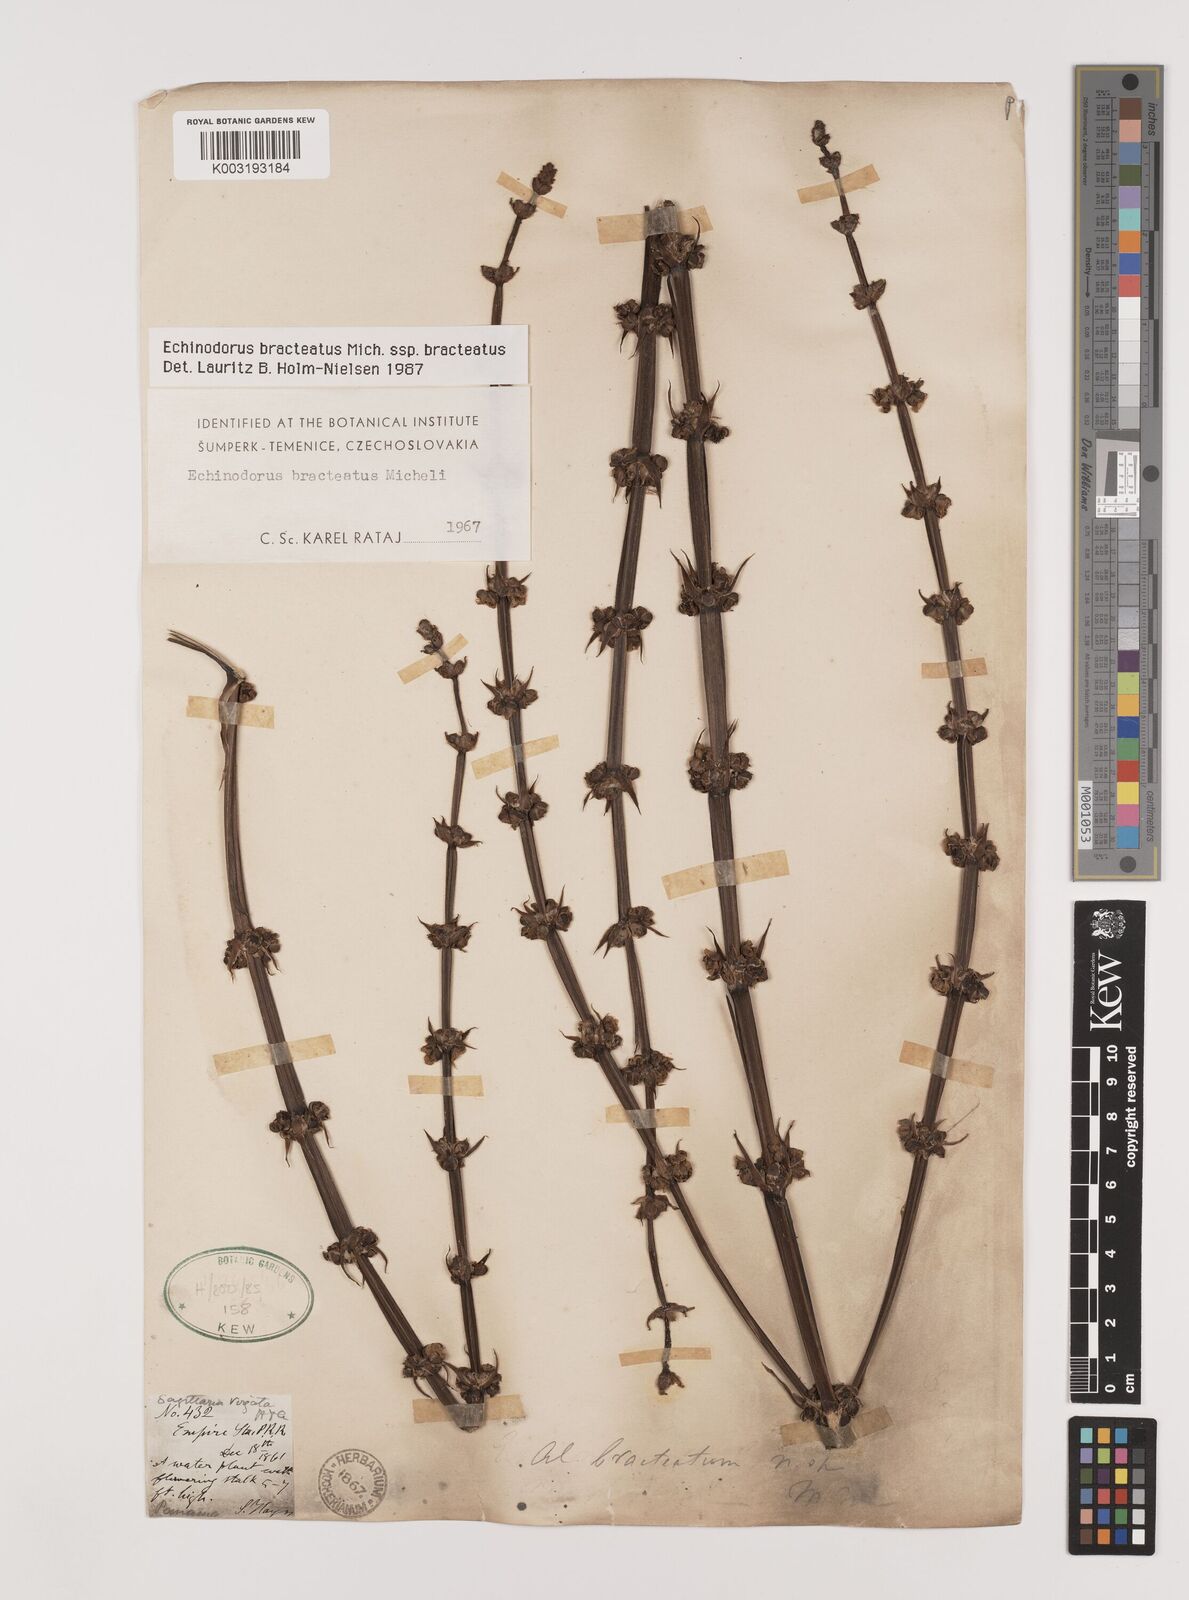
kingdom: Plantae
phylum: Tracheophyta
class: Liliopsida
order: Alismatales
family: Alismataceae
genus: Aquarius
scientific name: Aquarius bracteatus
